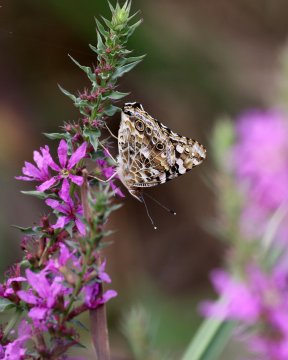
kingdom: Animalia
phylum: Arthropoda
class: Insecta
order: Lepidoptera
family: Nymphalidae
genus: Vanessa
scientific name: Vanessa cardui
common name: Painted Lady
